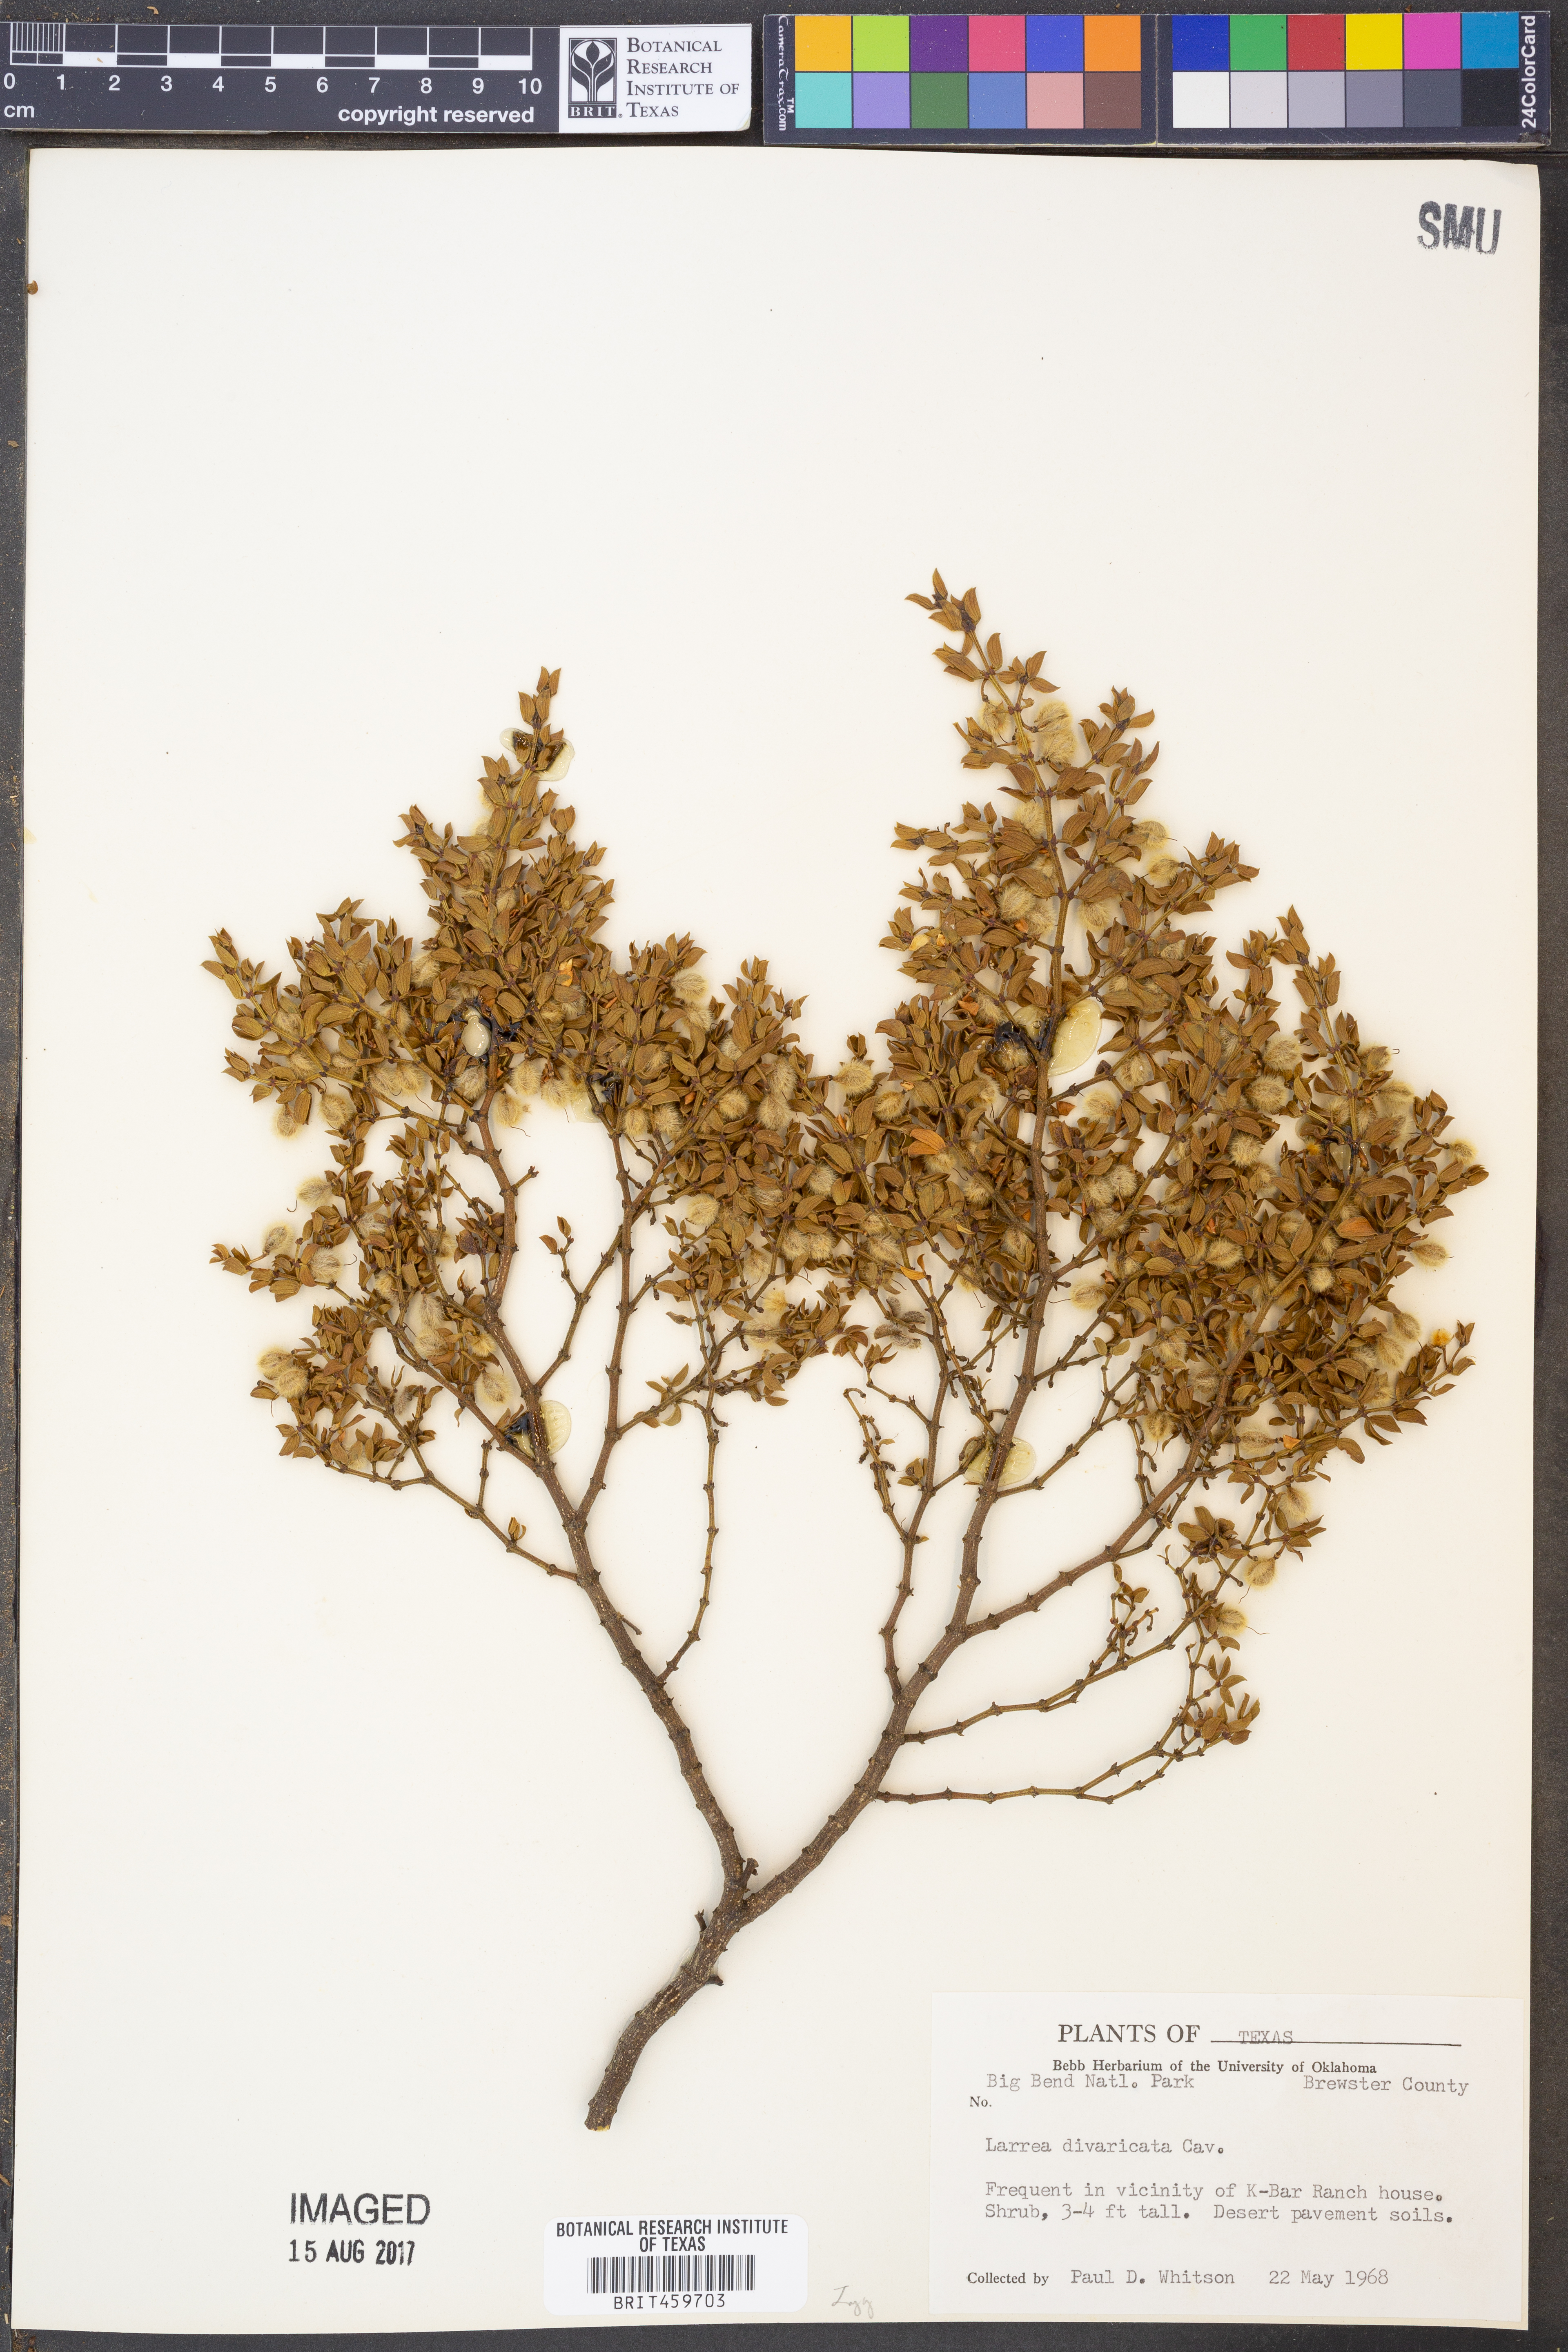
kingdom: Plantae
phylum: Tracheophyta
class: Magnoliopsida
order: Zygophyllales
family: Zygophyllaceae
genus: Larrea
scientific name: Larrea divaricata
